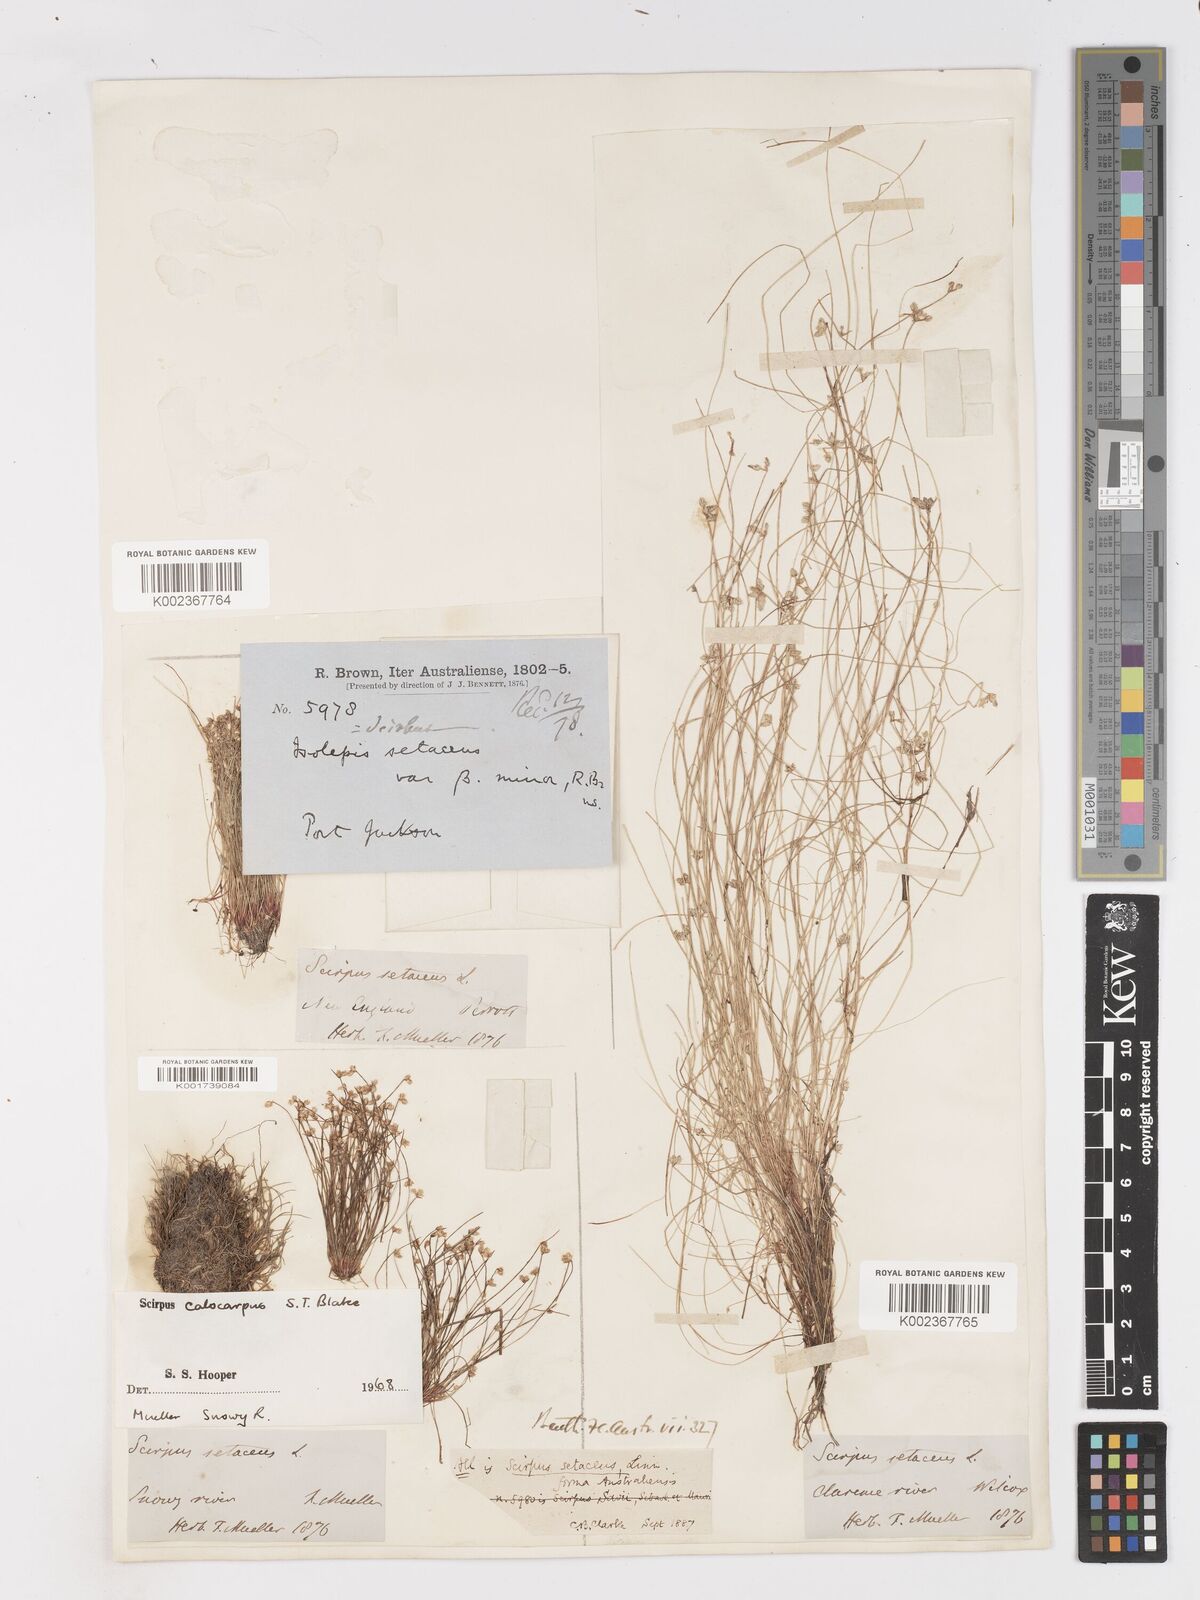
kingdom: Plantae
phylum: Tracheophyta
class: Liliopsida
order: Poales
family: Cyperaceae
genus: Isolepis
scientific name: Isolepis multicaulis
